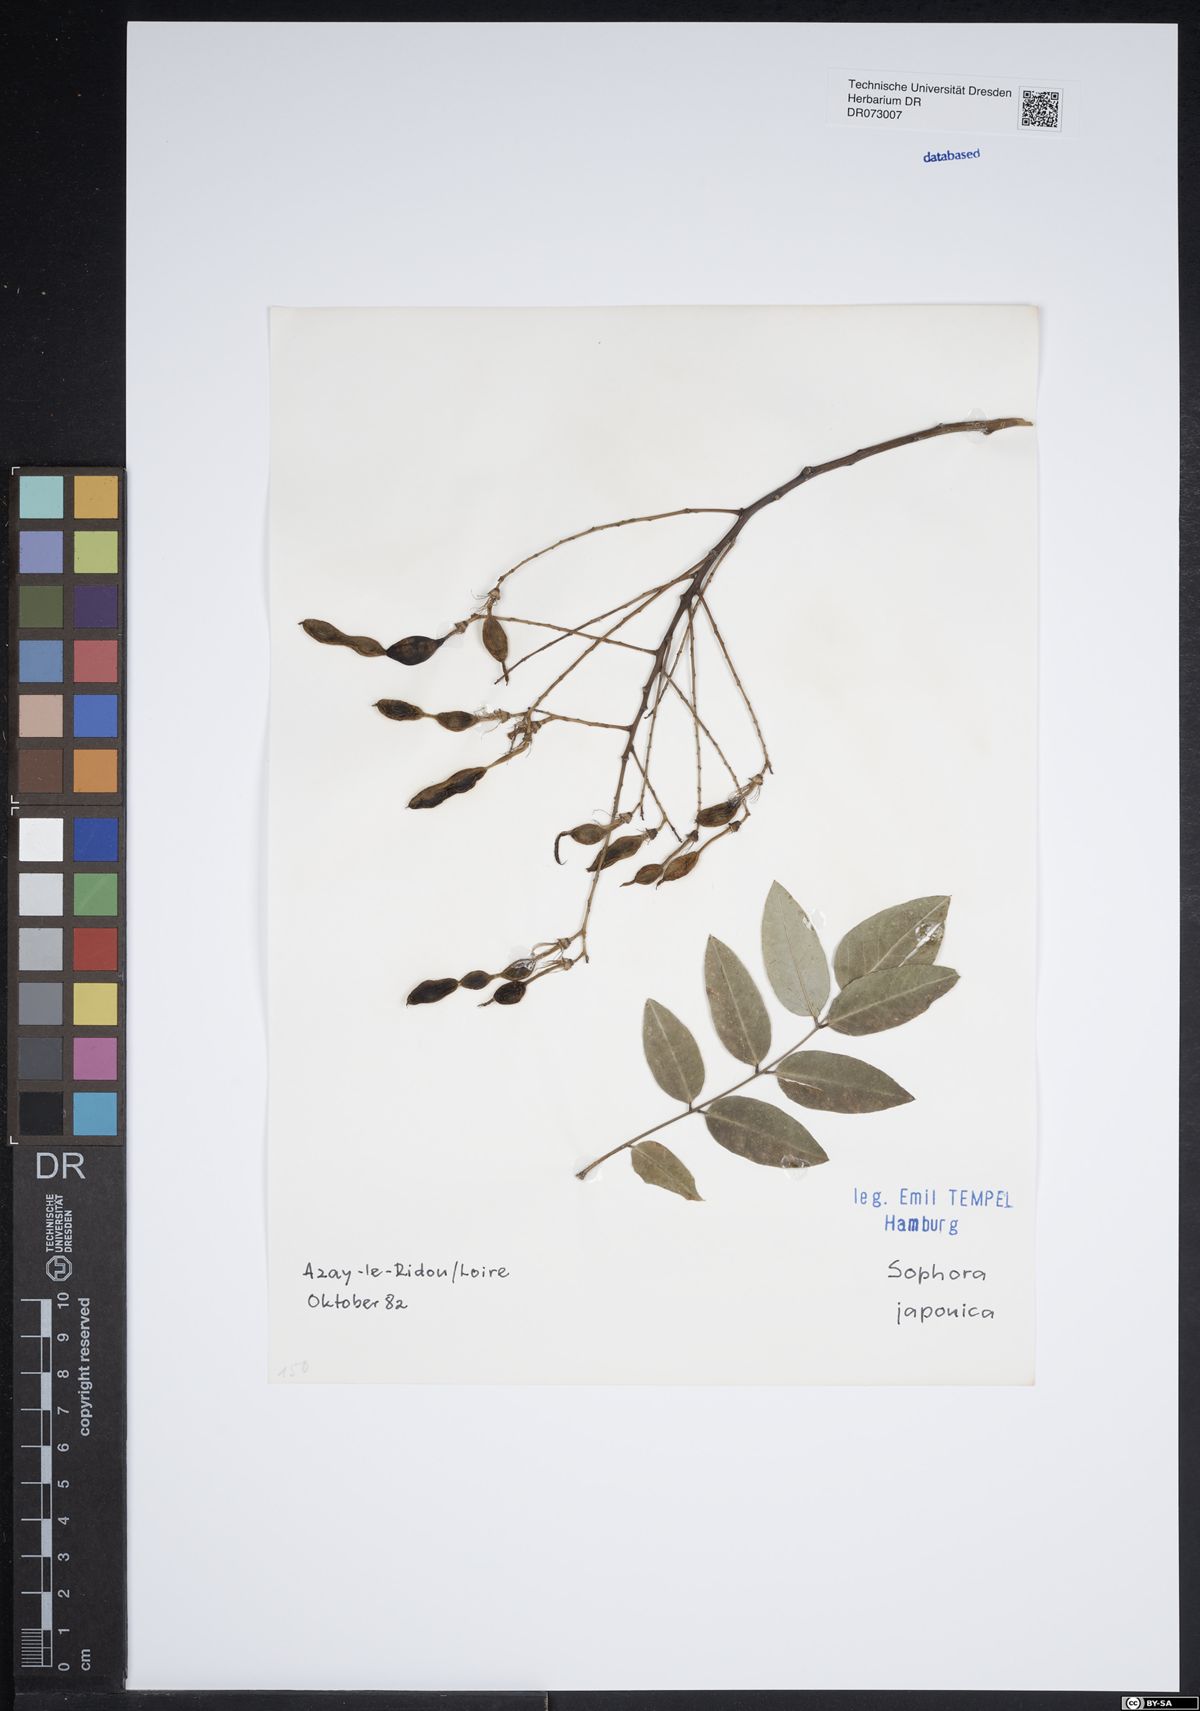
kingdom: Plantae
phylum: Tracheophyta
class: Magnoliopsida
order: Fabales
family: Fabaceae
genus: Styphnolobium
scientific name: Styphnolobium japonicum
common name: Chinese scholartree
